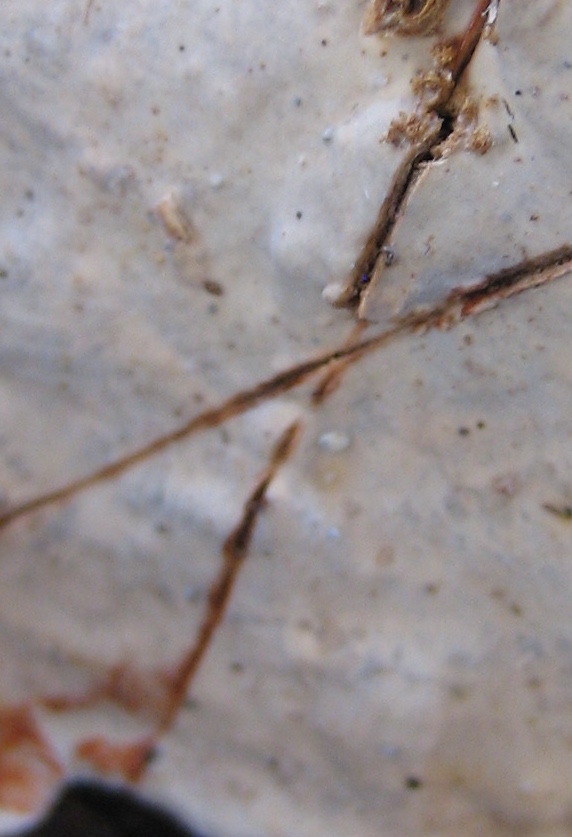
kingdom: Fungi
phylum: Basidiomycota
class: Agaricomycetes
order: Russulales
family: Stereaceae
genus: Stereum
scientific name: Stereum rugosum
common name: rynket lædersvamp
